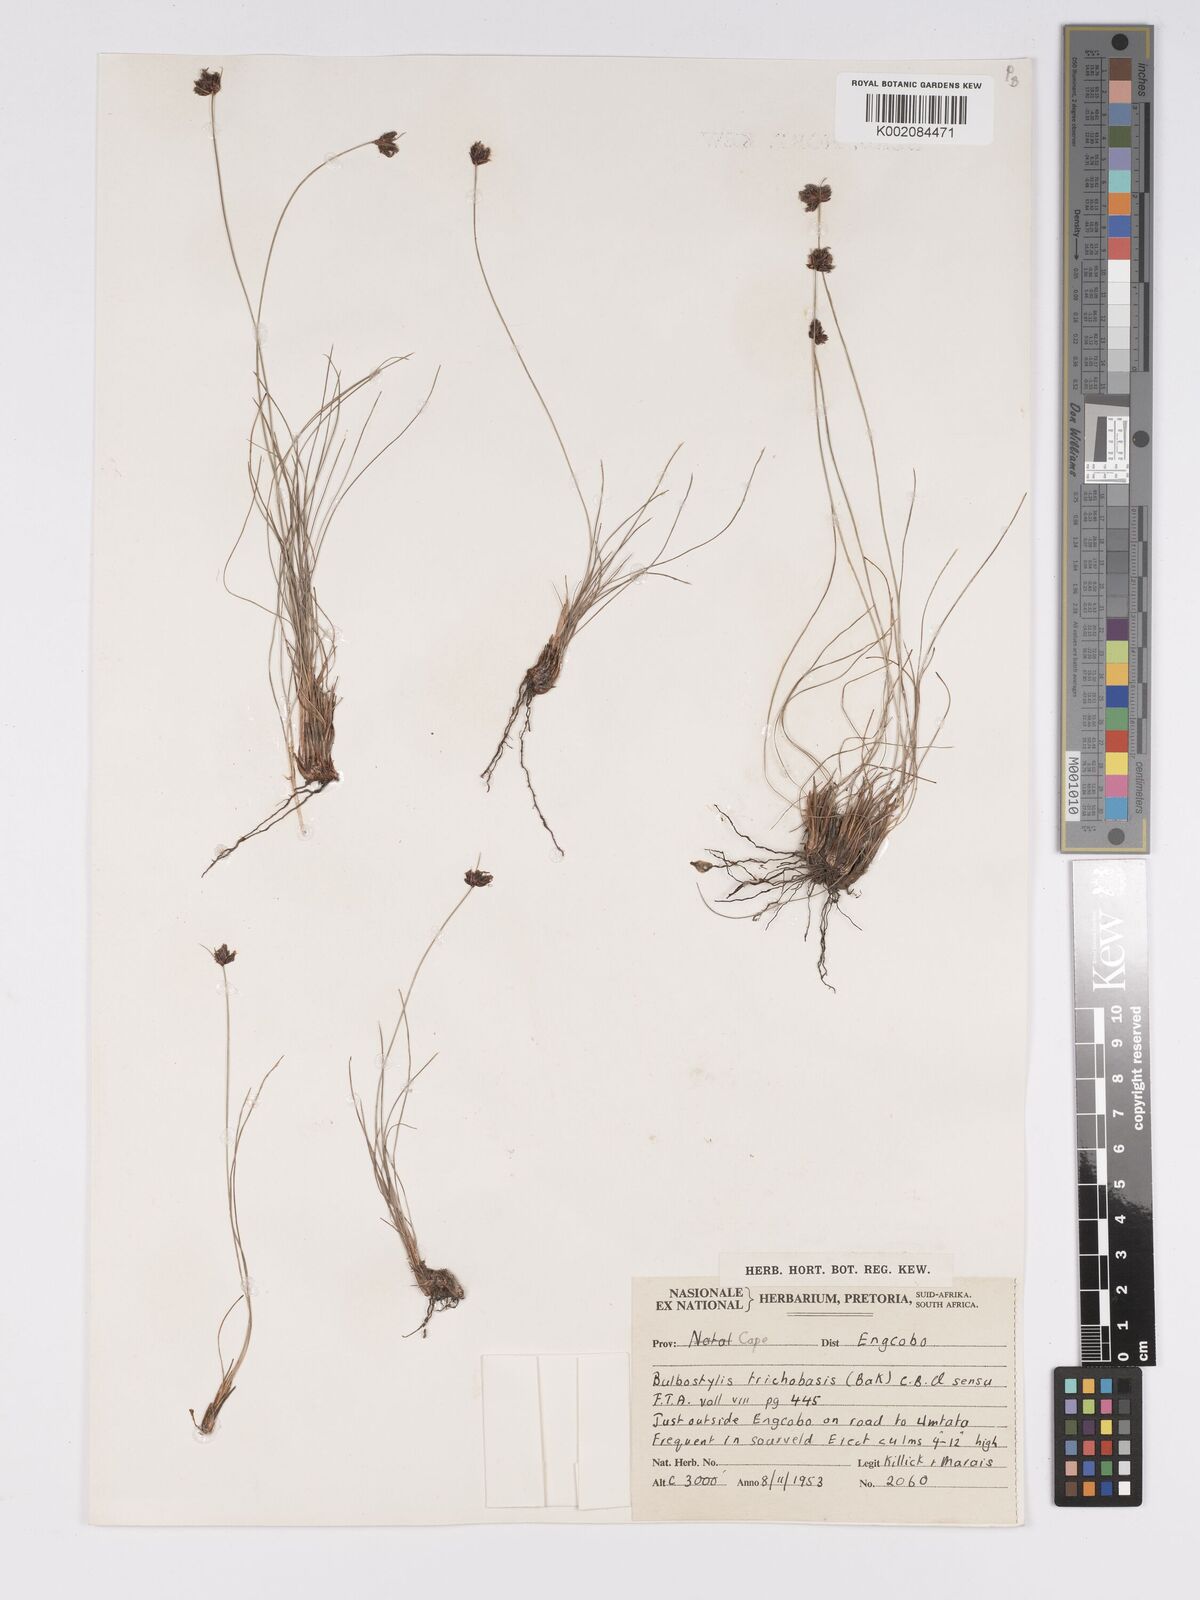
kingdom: Plantae
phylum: Tracheophyta
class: Liliopsida
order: Poales
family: Cyperaceae
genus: Bulbostylis
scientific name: Bulbostylis schoenoides
